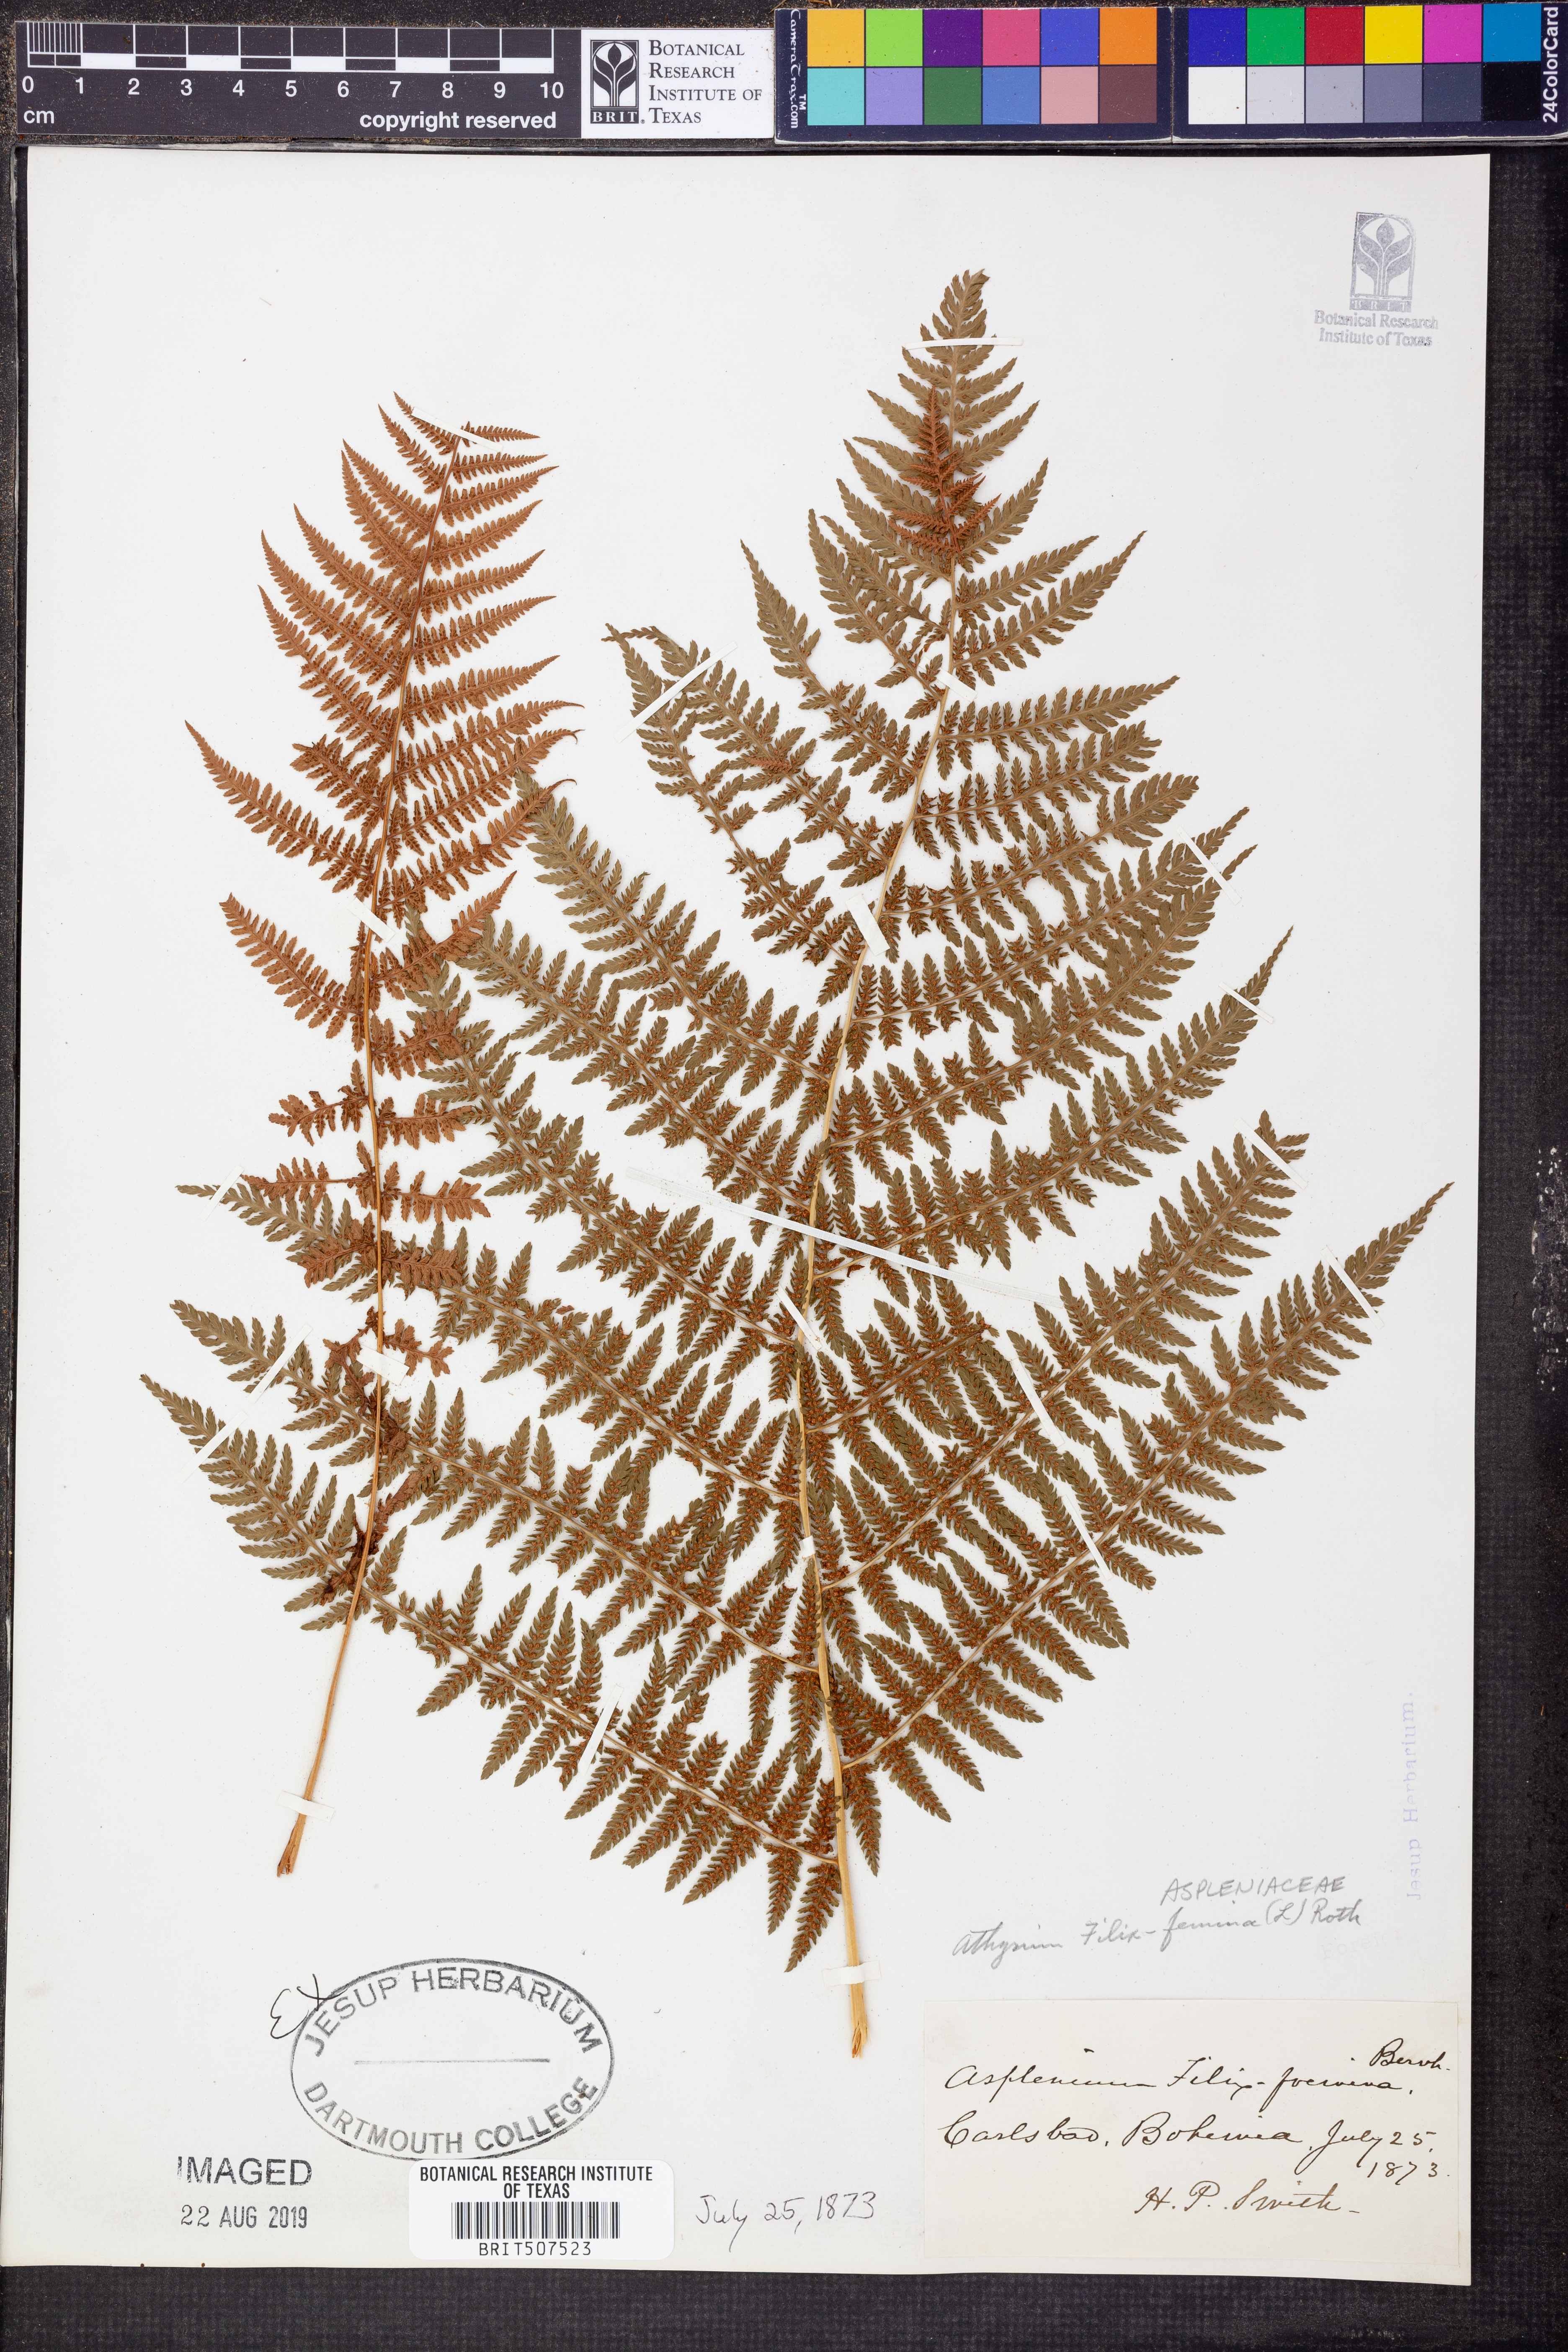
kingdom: Plantae
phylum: Tracheophyta
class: Polypodiopsida
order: Polypodiales
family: Athyriaceae
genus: Athyrium
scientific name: Athyrium filix-femina
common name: Lady fern
